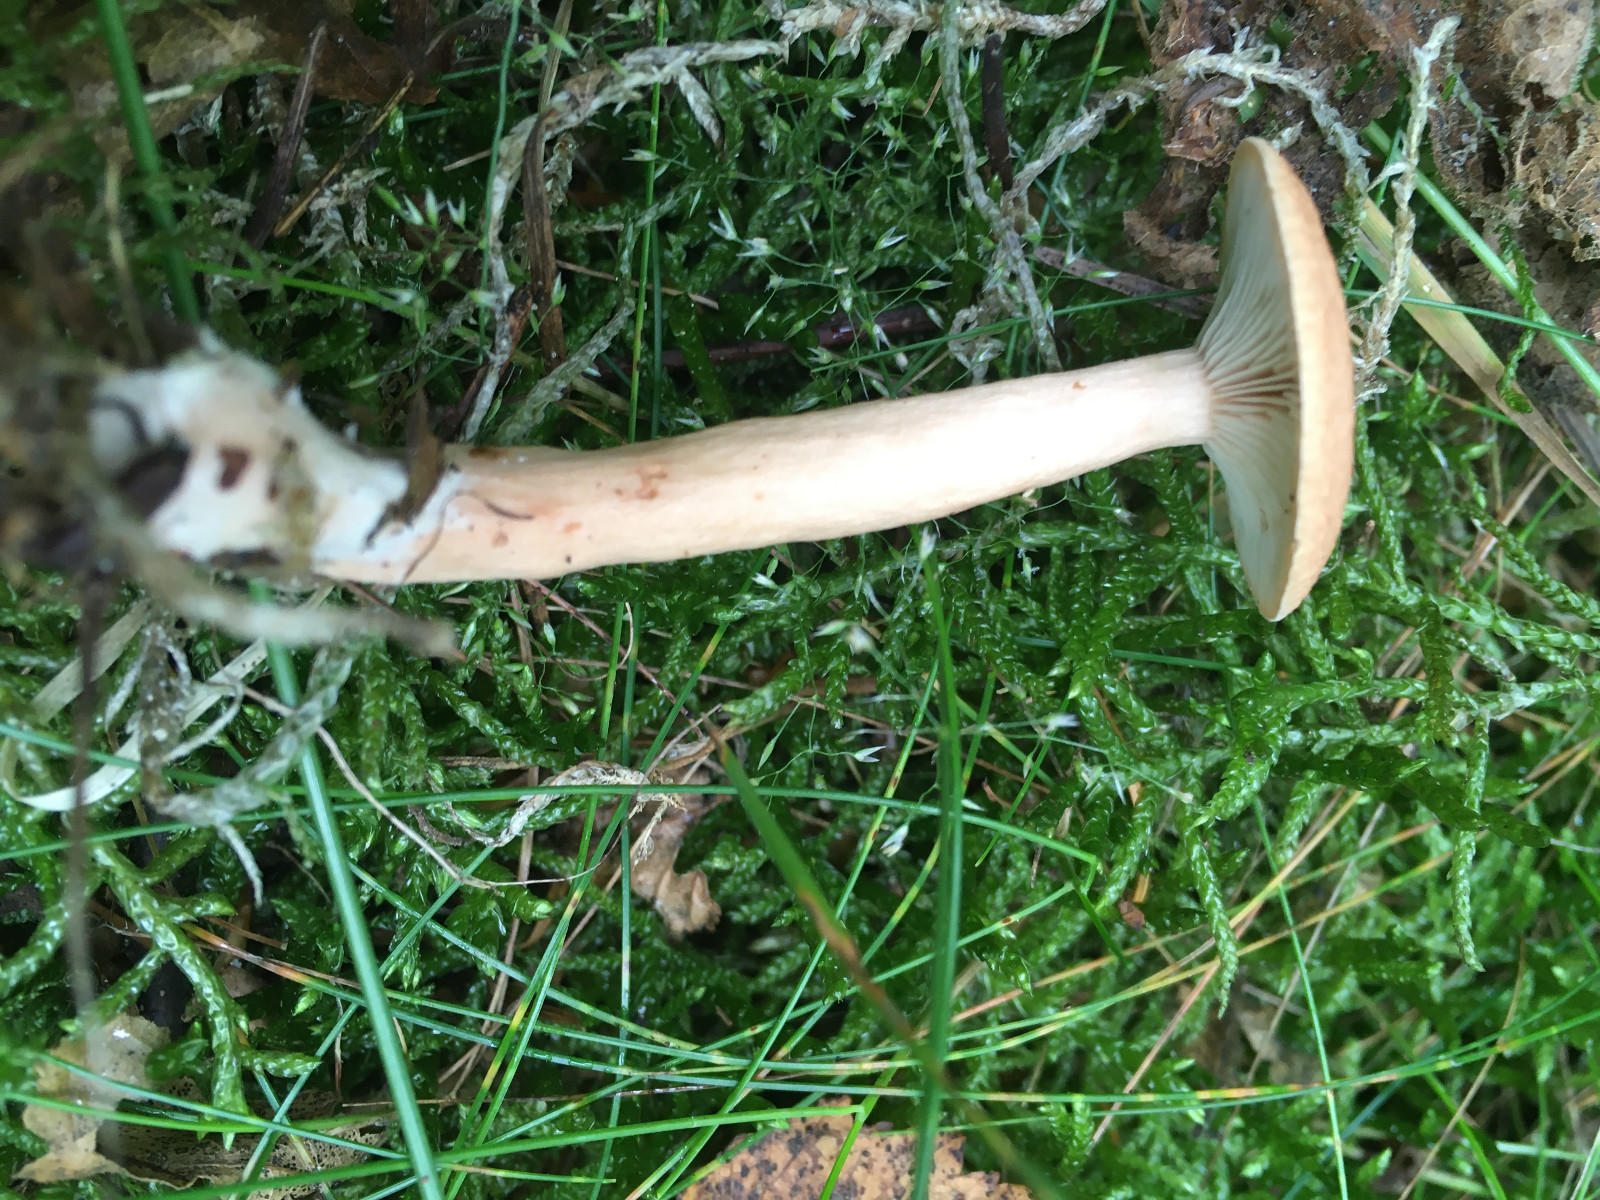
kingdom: Fungi
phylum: Basidiomycota
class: Agaricomycetes
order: Russulales
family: Russulaceae
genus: Lactarius
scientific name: Lactarius tabidus
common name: rynket mælkehat
